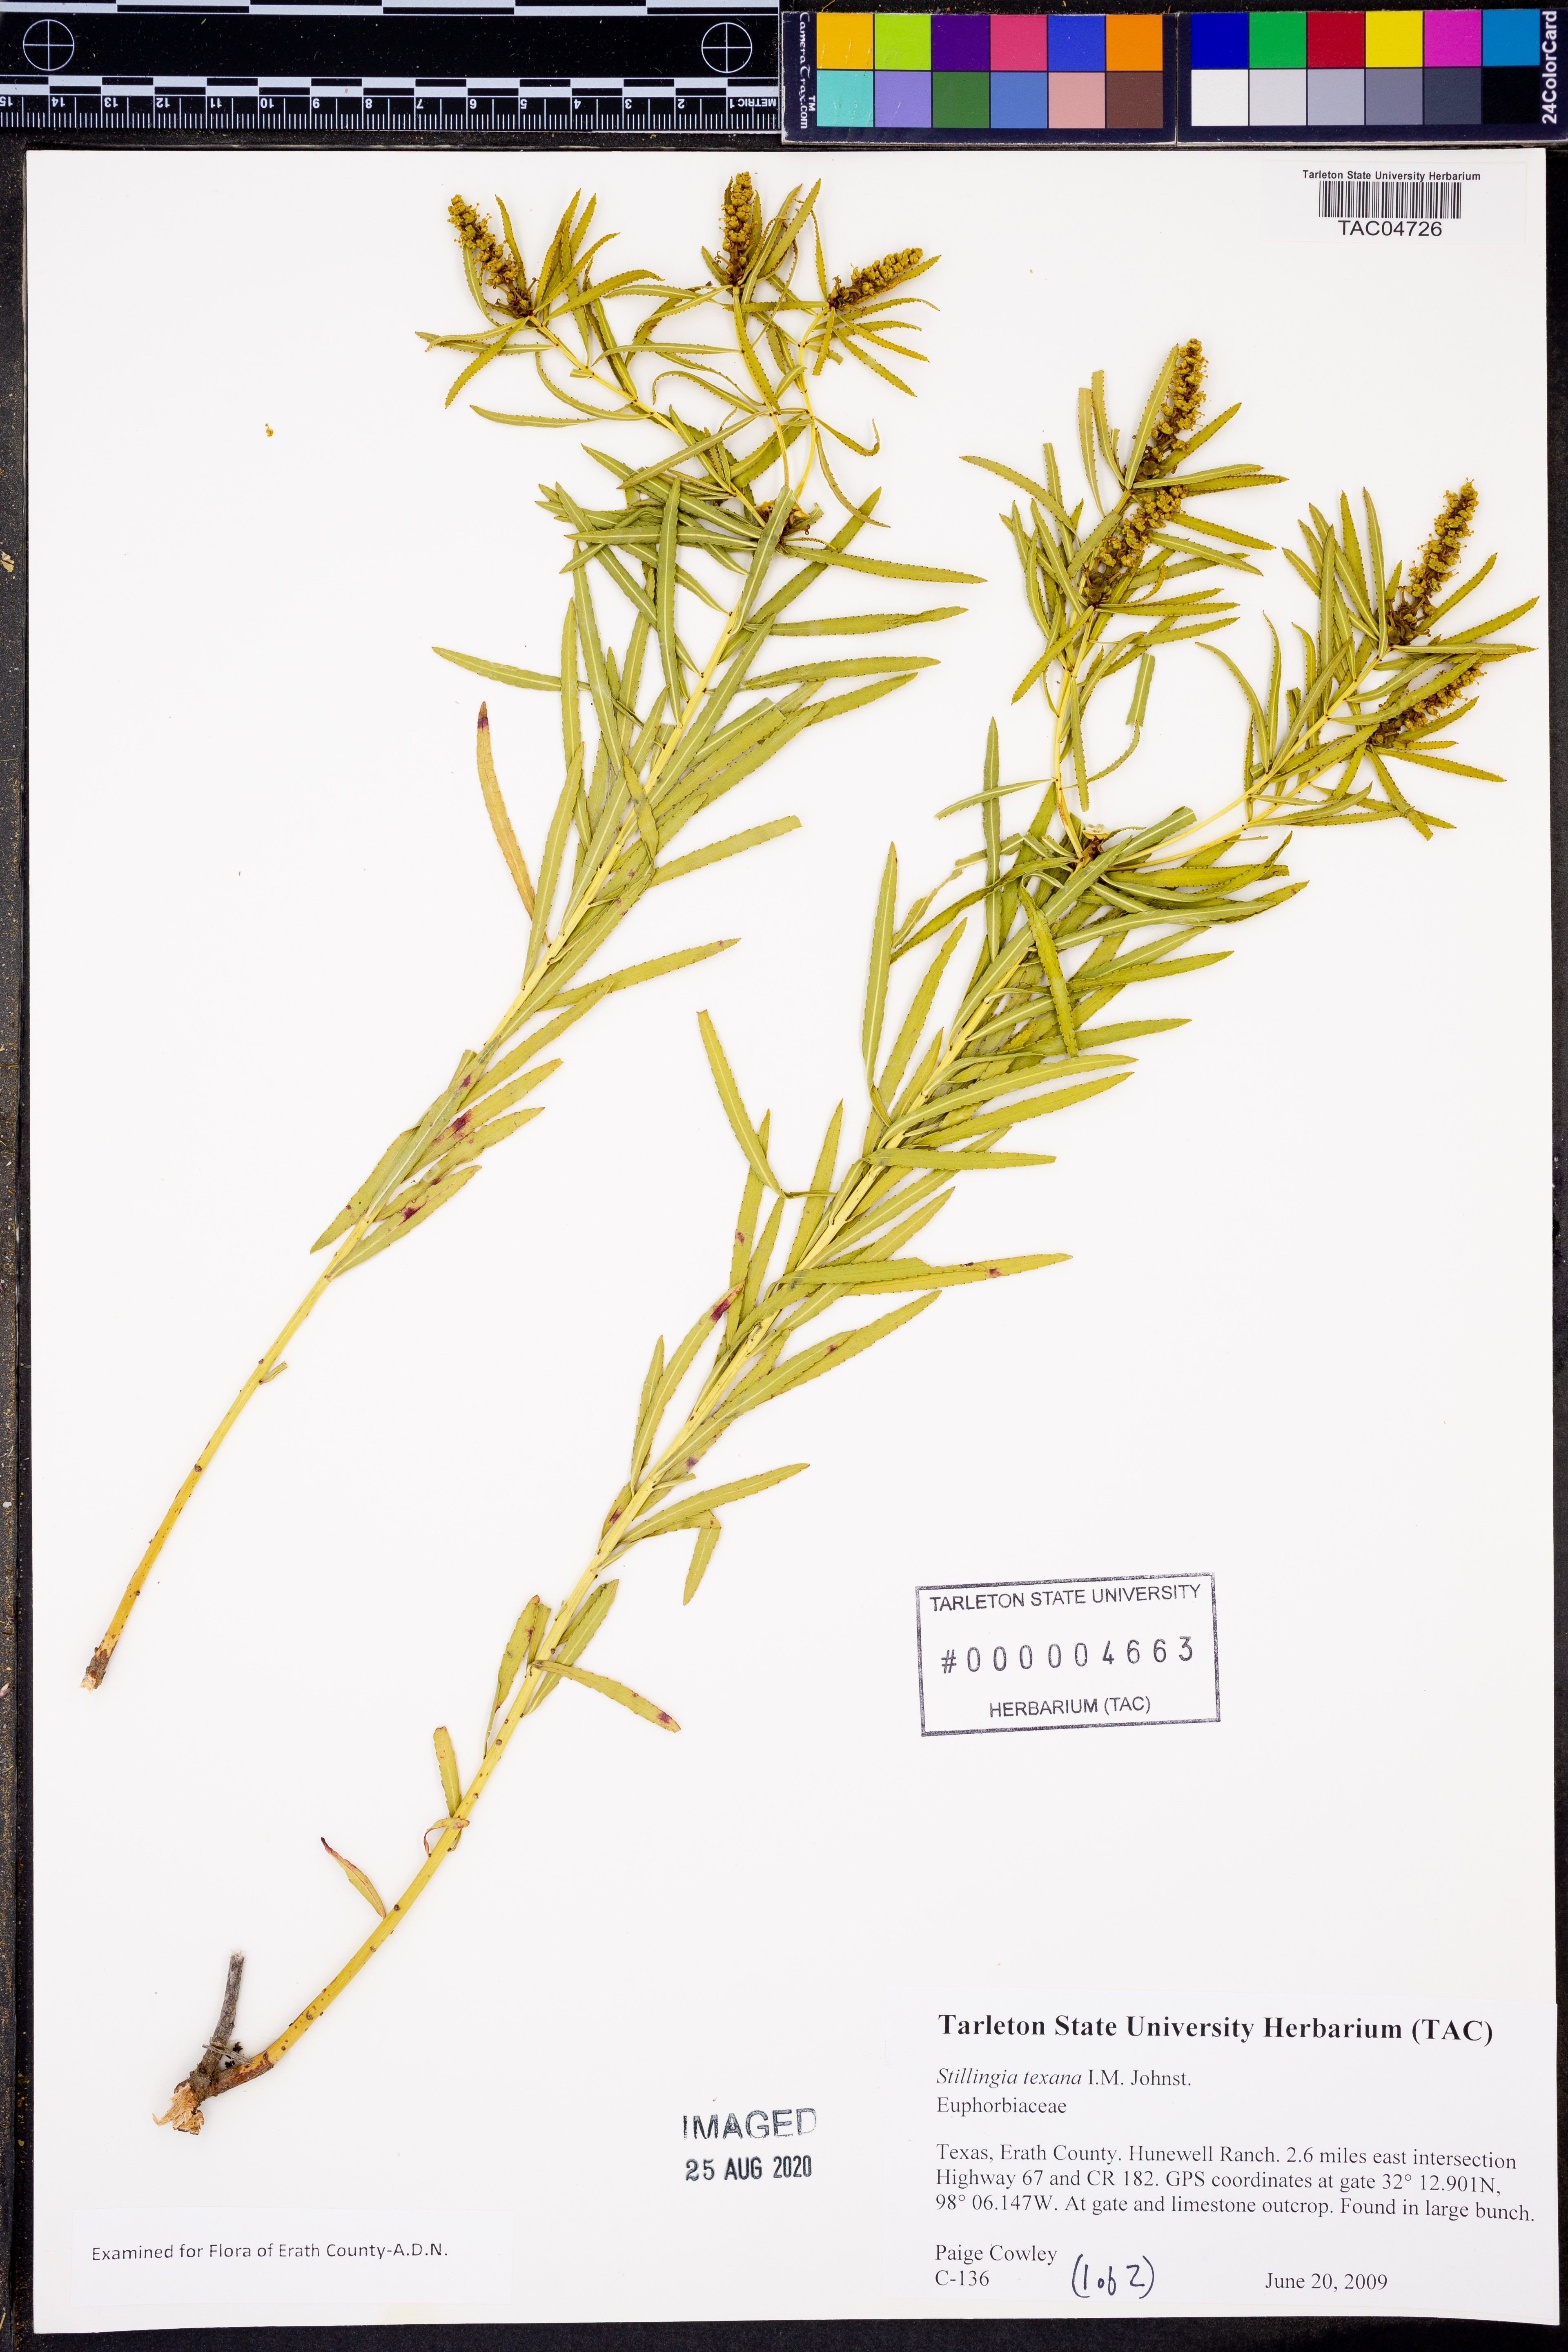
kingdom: Plantae
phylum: Tracheophyta
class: Magnoliopsida
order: Malpighiales
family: Euphorbiaceae
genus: Stillingia
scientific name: Stillingia texana
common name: Texas stillingia
